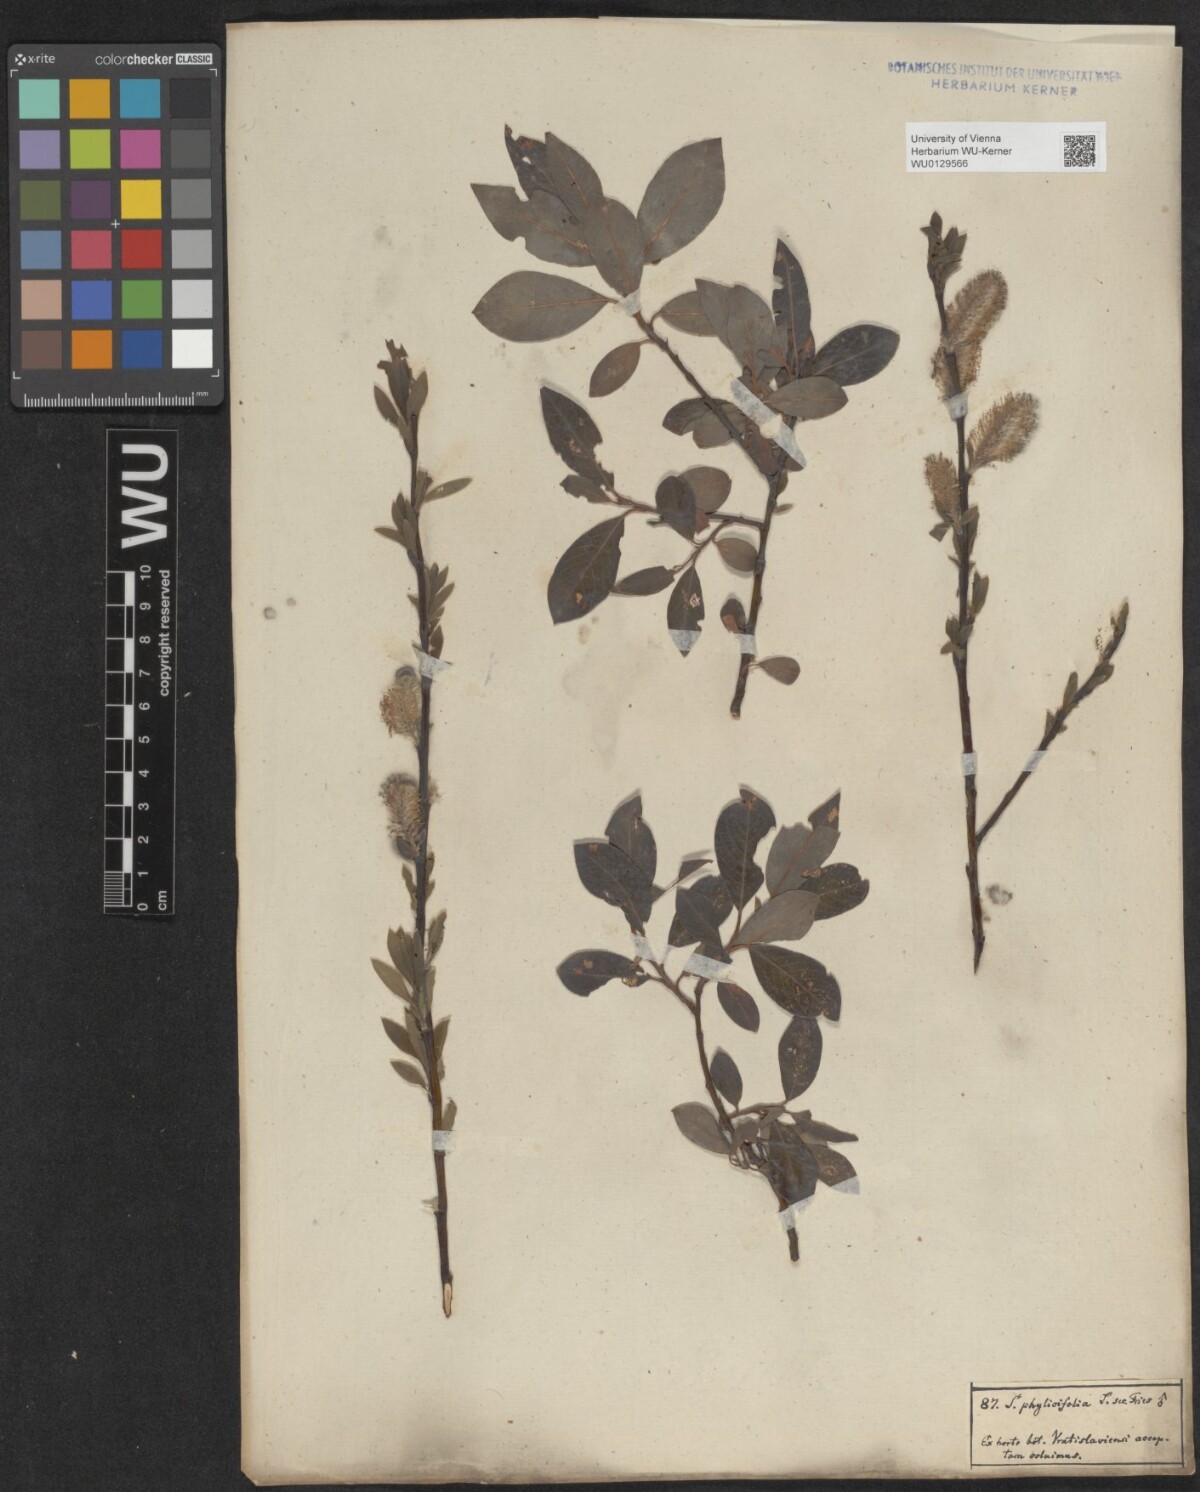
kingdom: Plantae
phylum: Tracheophyta
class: Magnoliopsida
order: Malpighiales
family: Salicaceae
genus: Salix
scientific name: Salix bicolor
